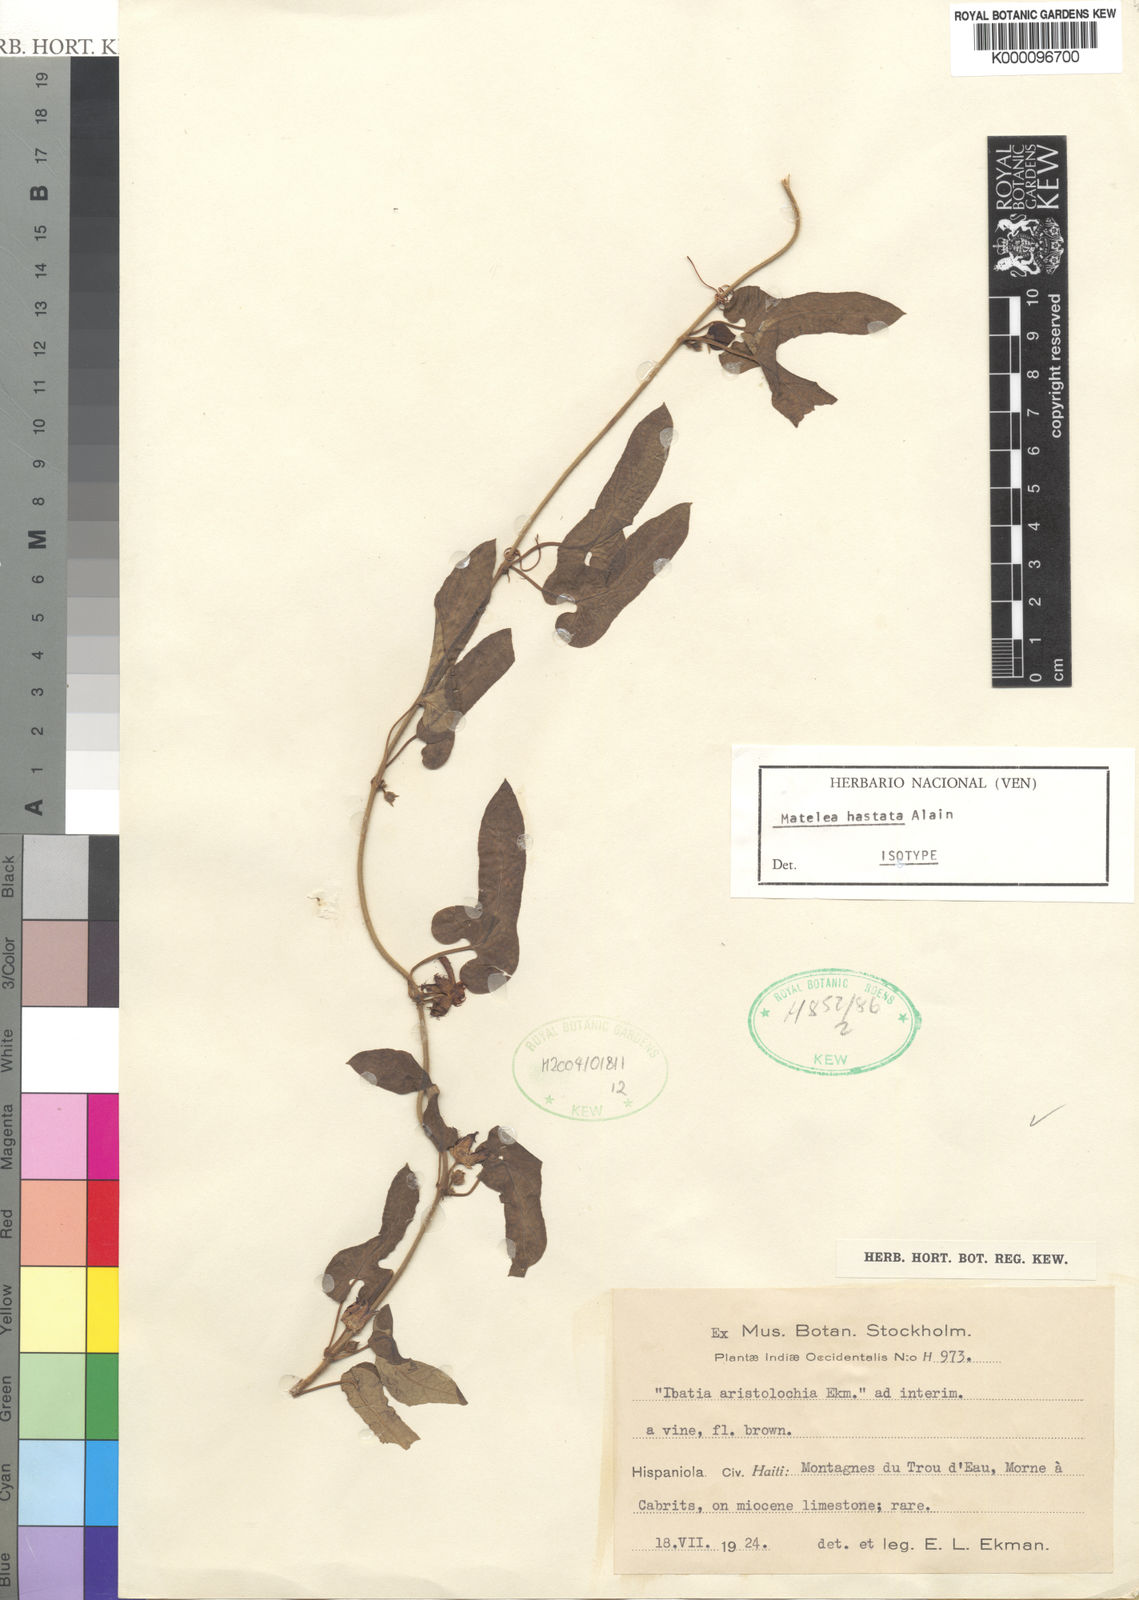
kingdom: Plantae
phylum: Tracheophyta
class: Magnoliopsida
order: Gentianales
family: Apocynaceae
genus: Matelea
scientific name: Matelea hastata
